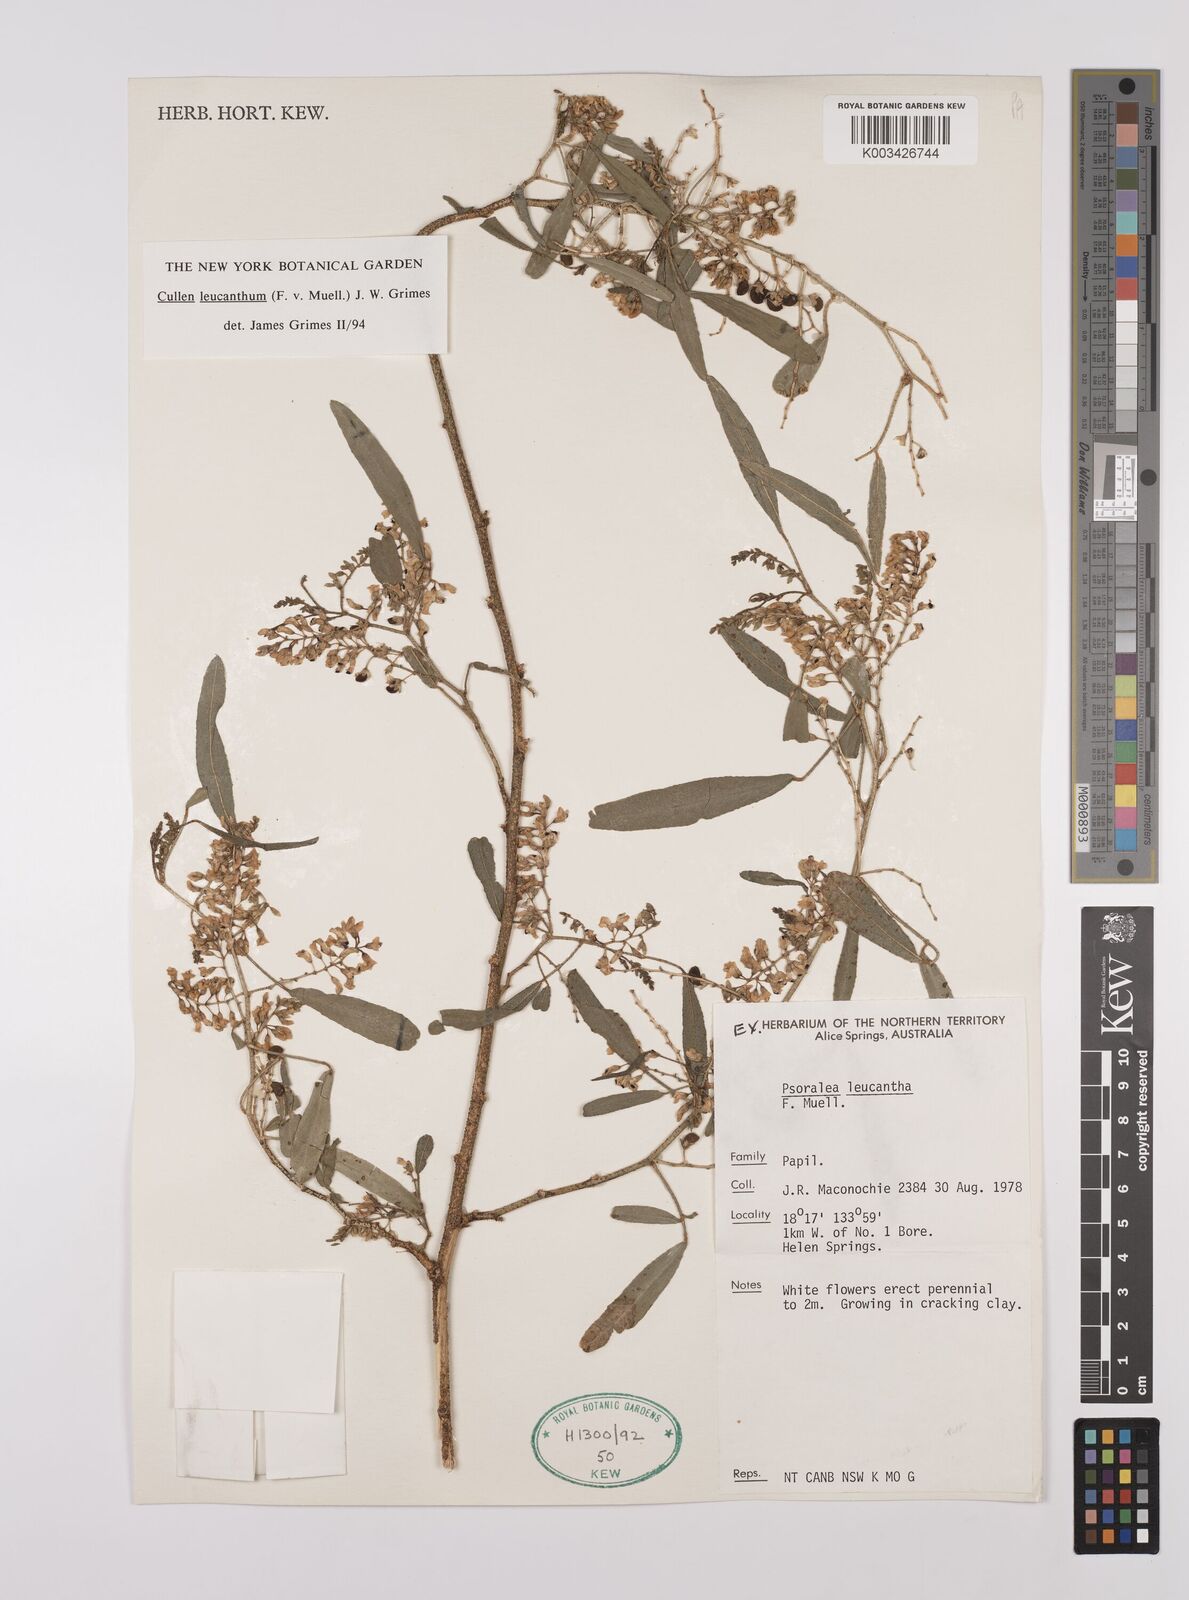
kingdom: Plantae
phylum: Tracheophyta
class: Magnoliopsida
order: Fabales
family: Fabaceae
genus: Cullen
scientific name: Cullen leucanthum
